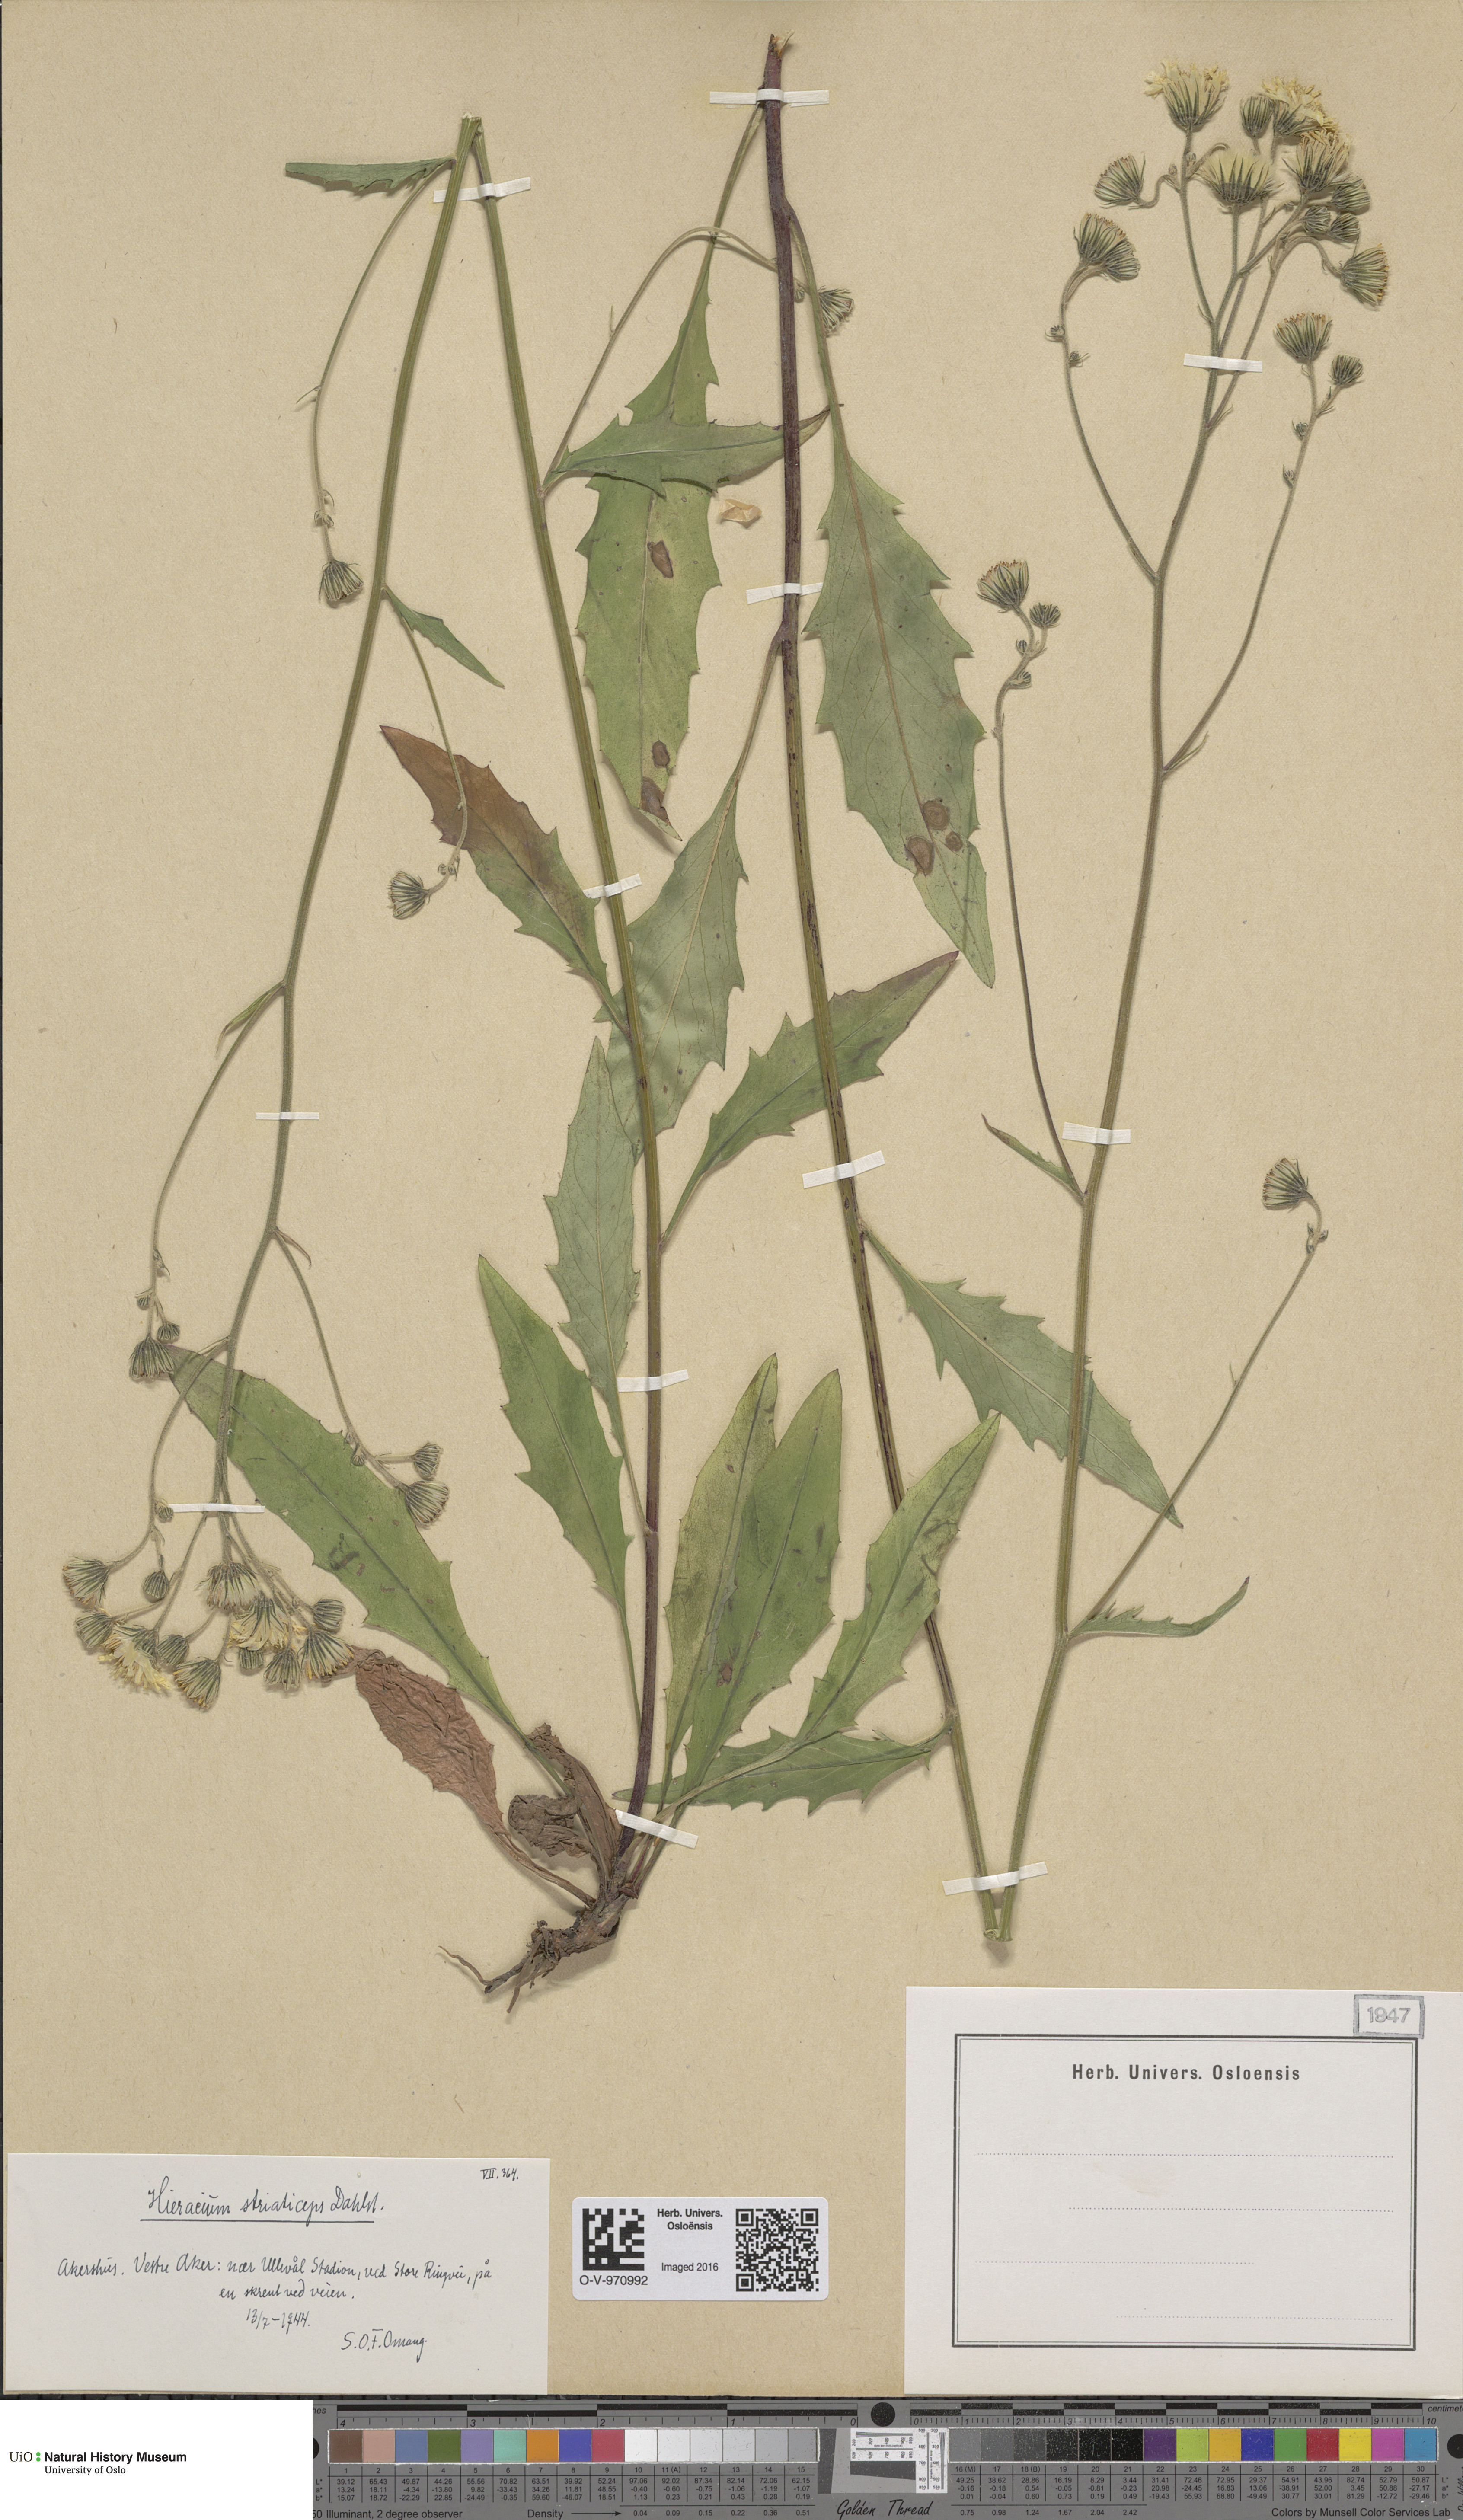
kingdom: Plantae
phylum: Tracheophyta
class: Magnoliopsida
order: Asterales
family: Asteraceae
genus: Hieracium
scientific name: Hieracium
